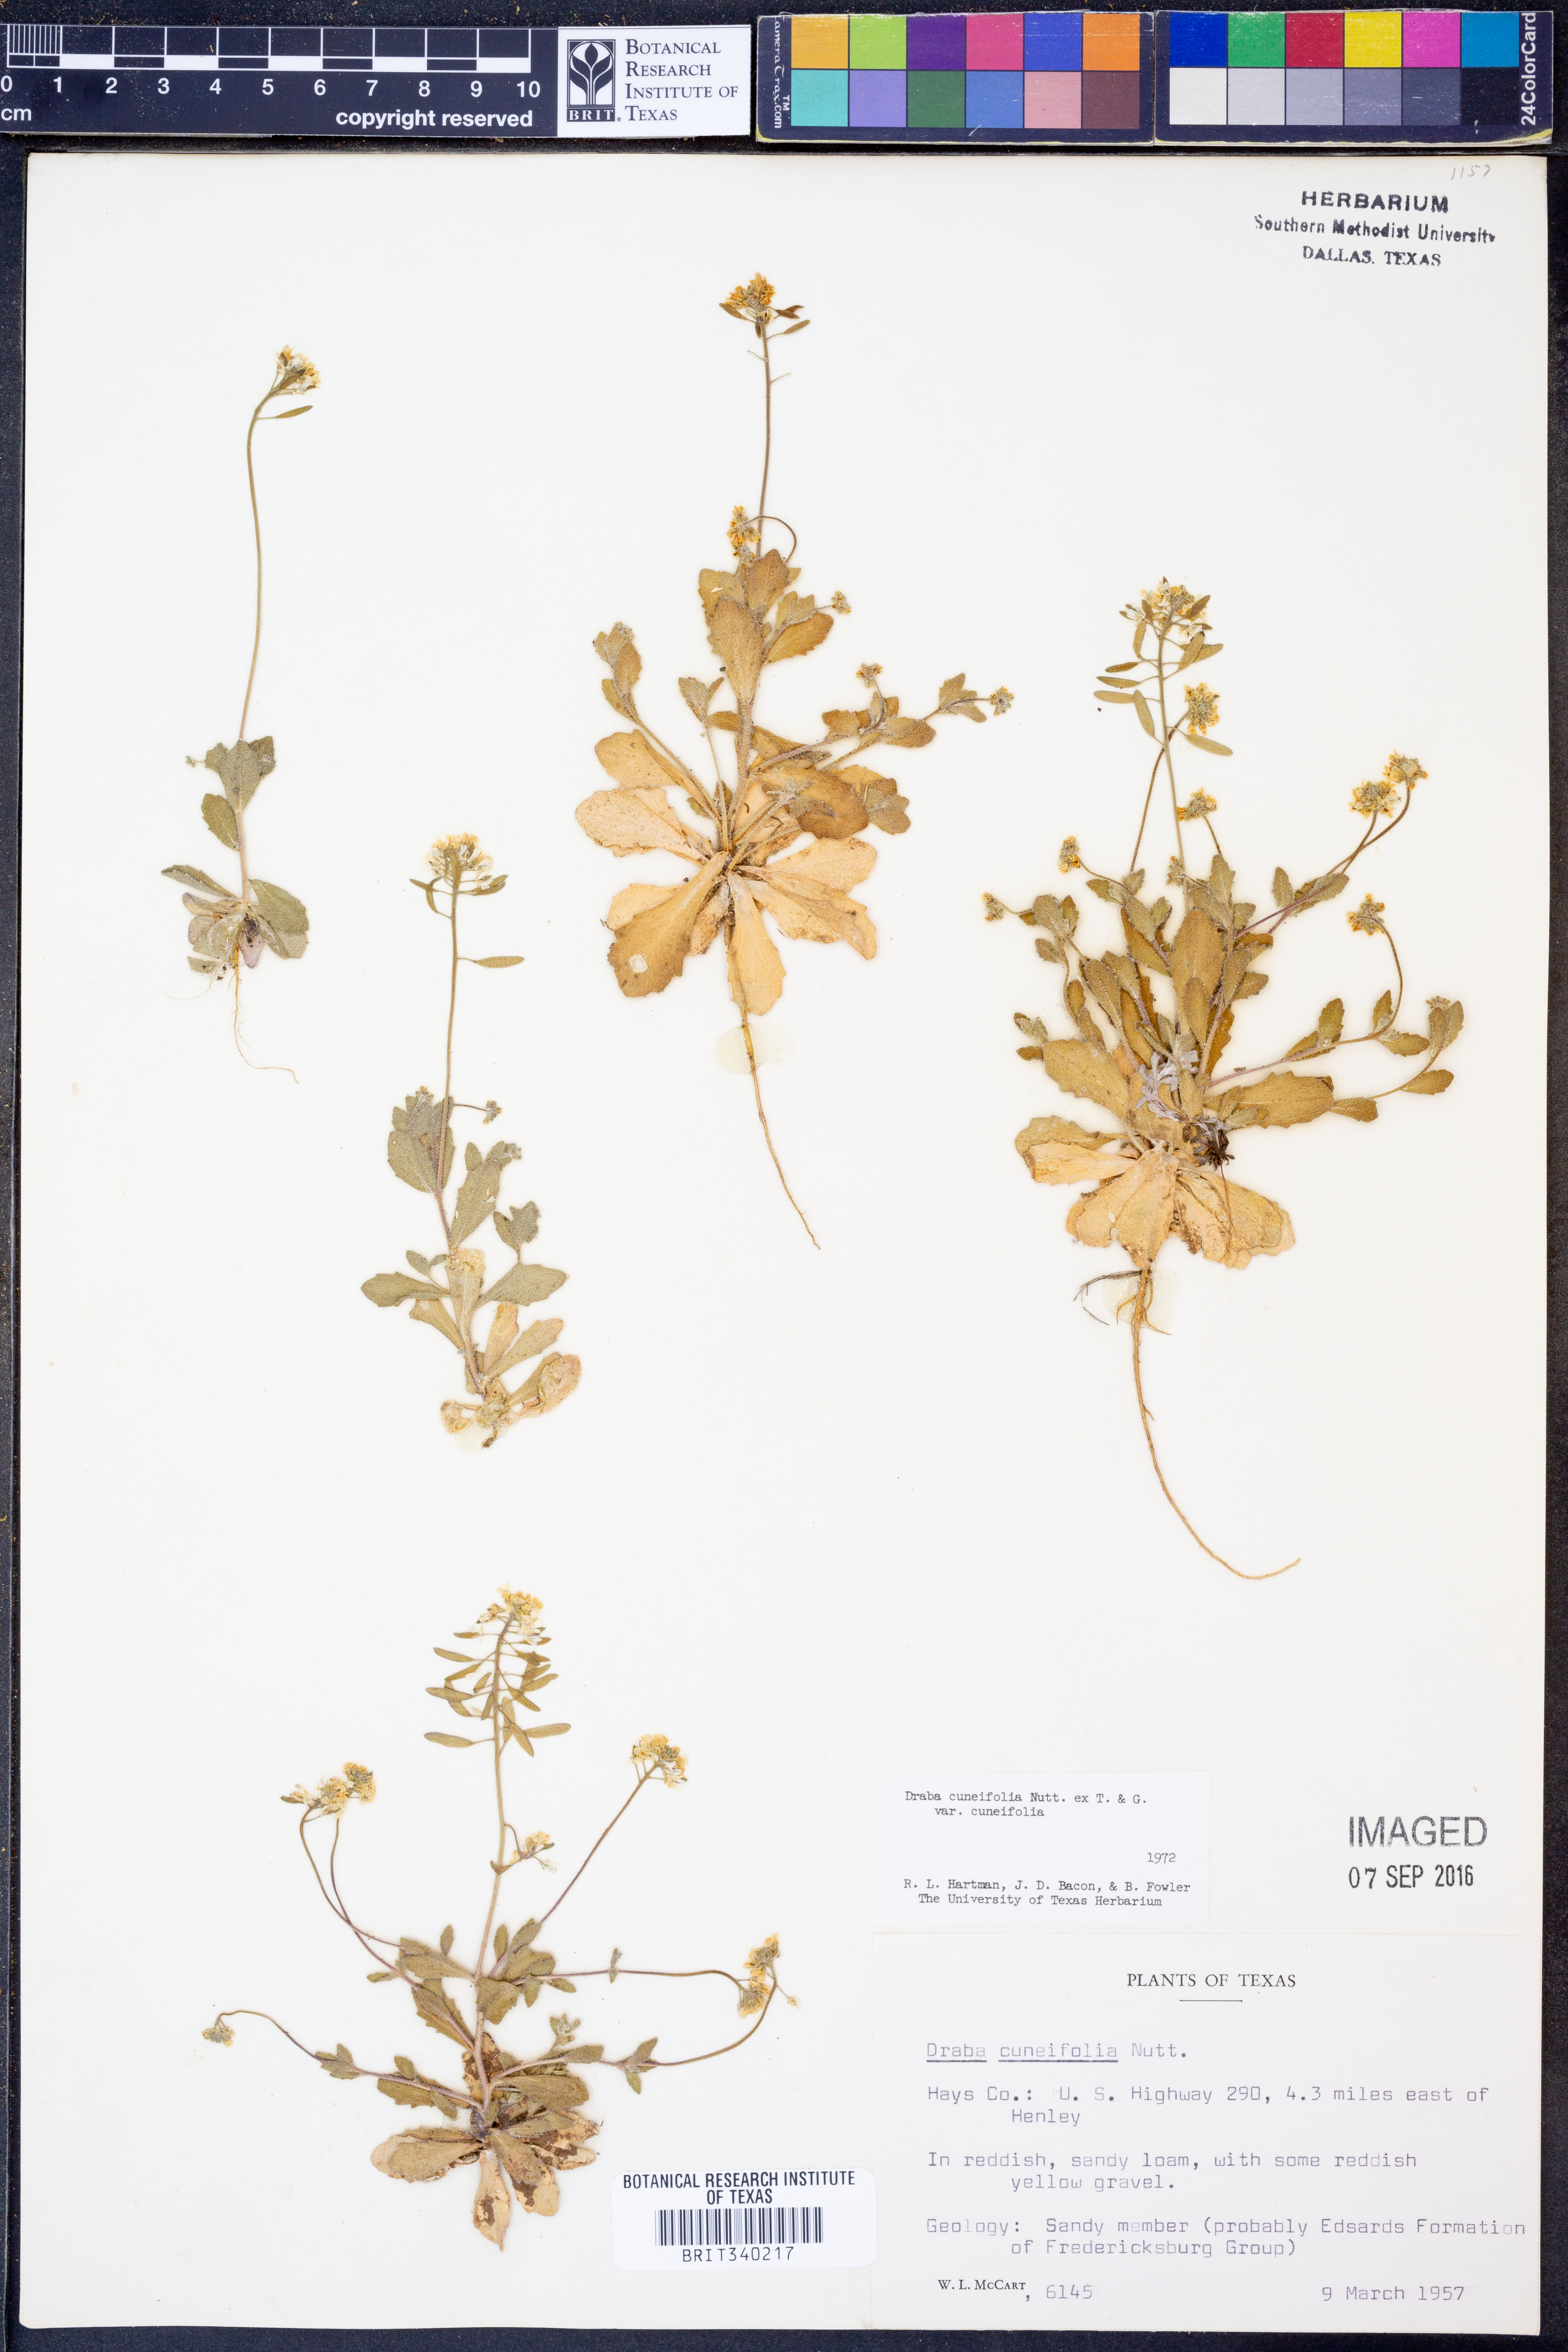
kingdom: Plantae
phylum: Tracheophyta
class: Magnoliopsida
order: Brassicales
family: Brassicaceae
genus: Tomostima
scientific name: Tomostima cuneifolia
